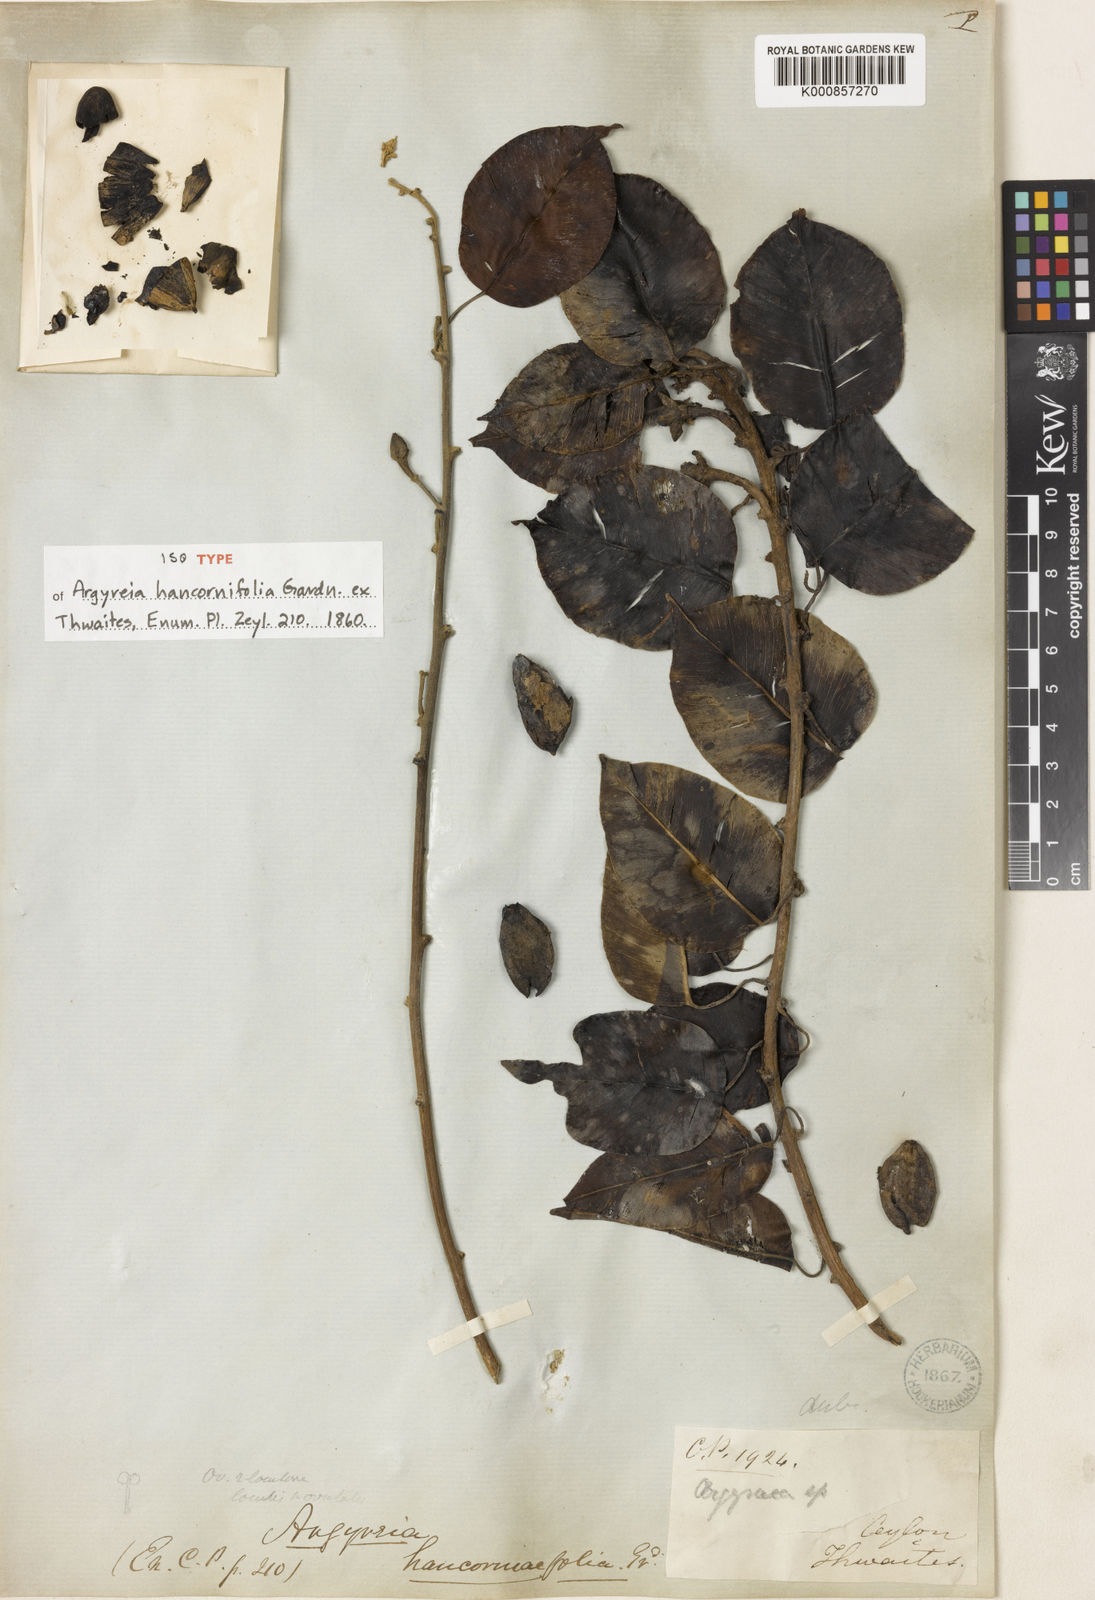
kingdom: Plantae
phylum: Tracheophyta
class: Magnoliopsida
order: Solanales
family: Convolvulaceae
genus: Argyreia
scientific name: Argyreia hancorniifolia
